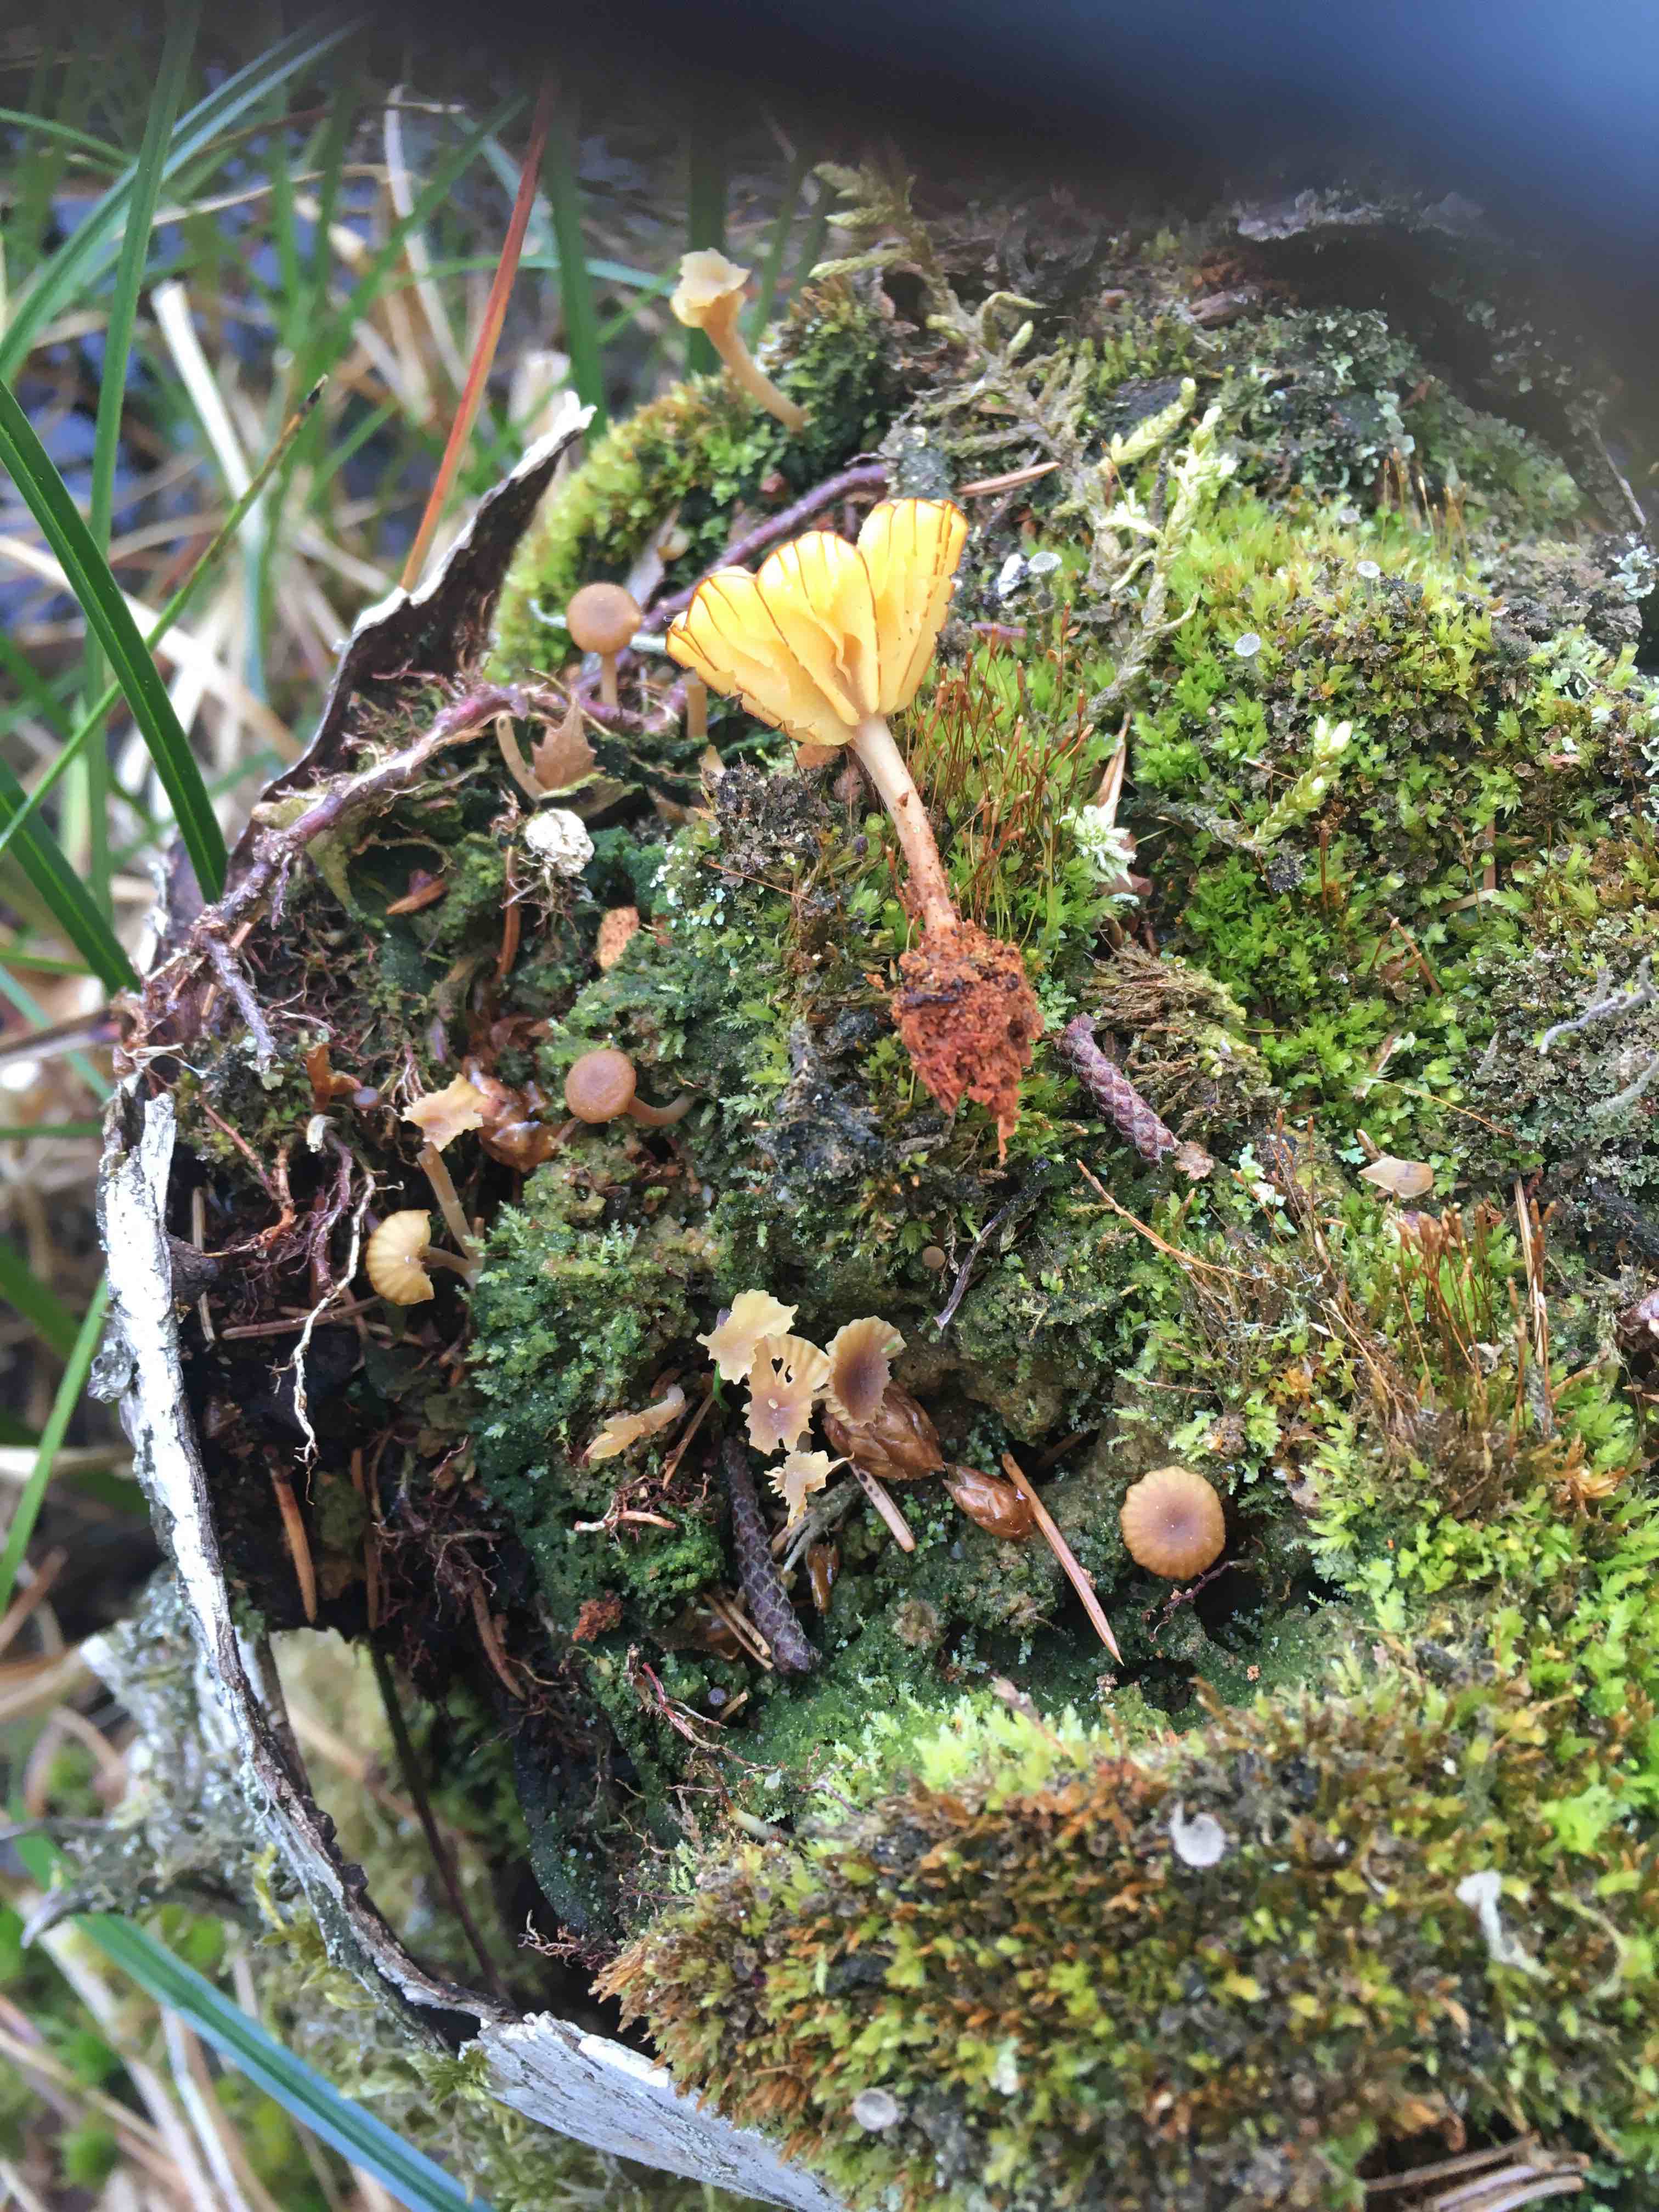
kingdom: Fungi
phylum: Basidiomycota
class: Agaricomycetes
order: Agaricales
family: Hygrophoraceae
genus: Lichenomphalia
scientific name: Lichenomphalia umbellifera
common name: tørve-lavhat
